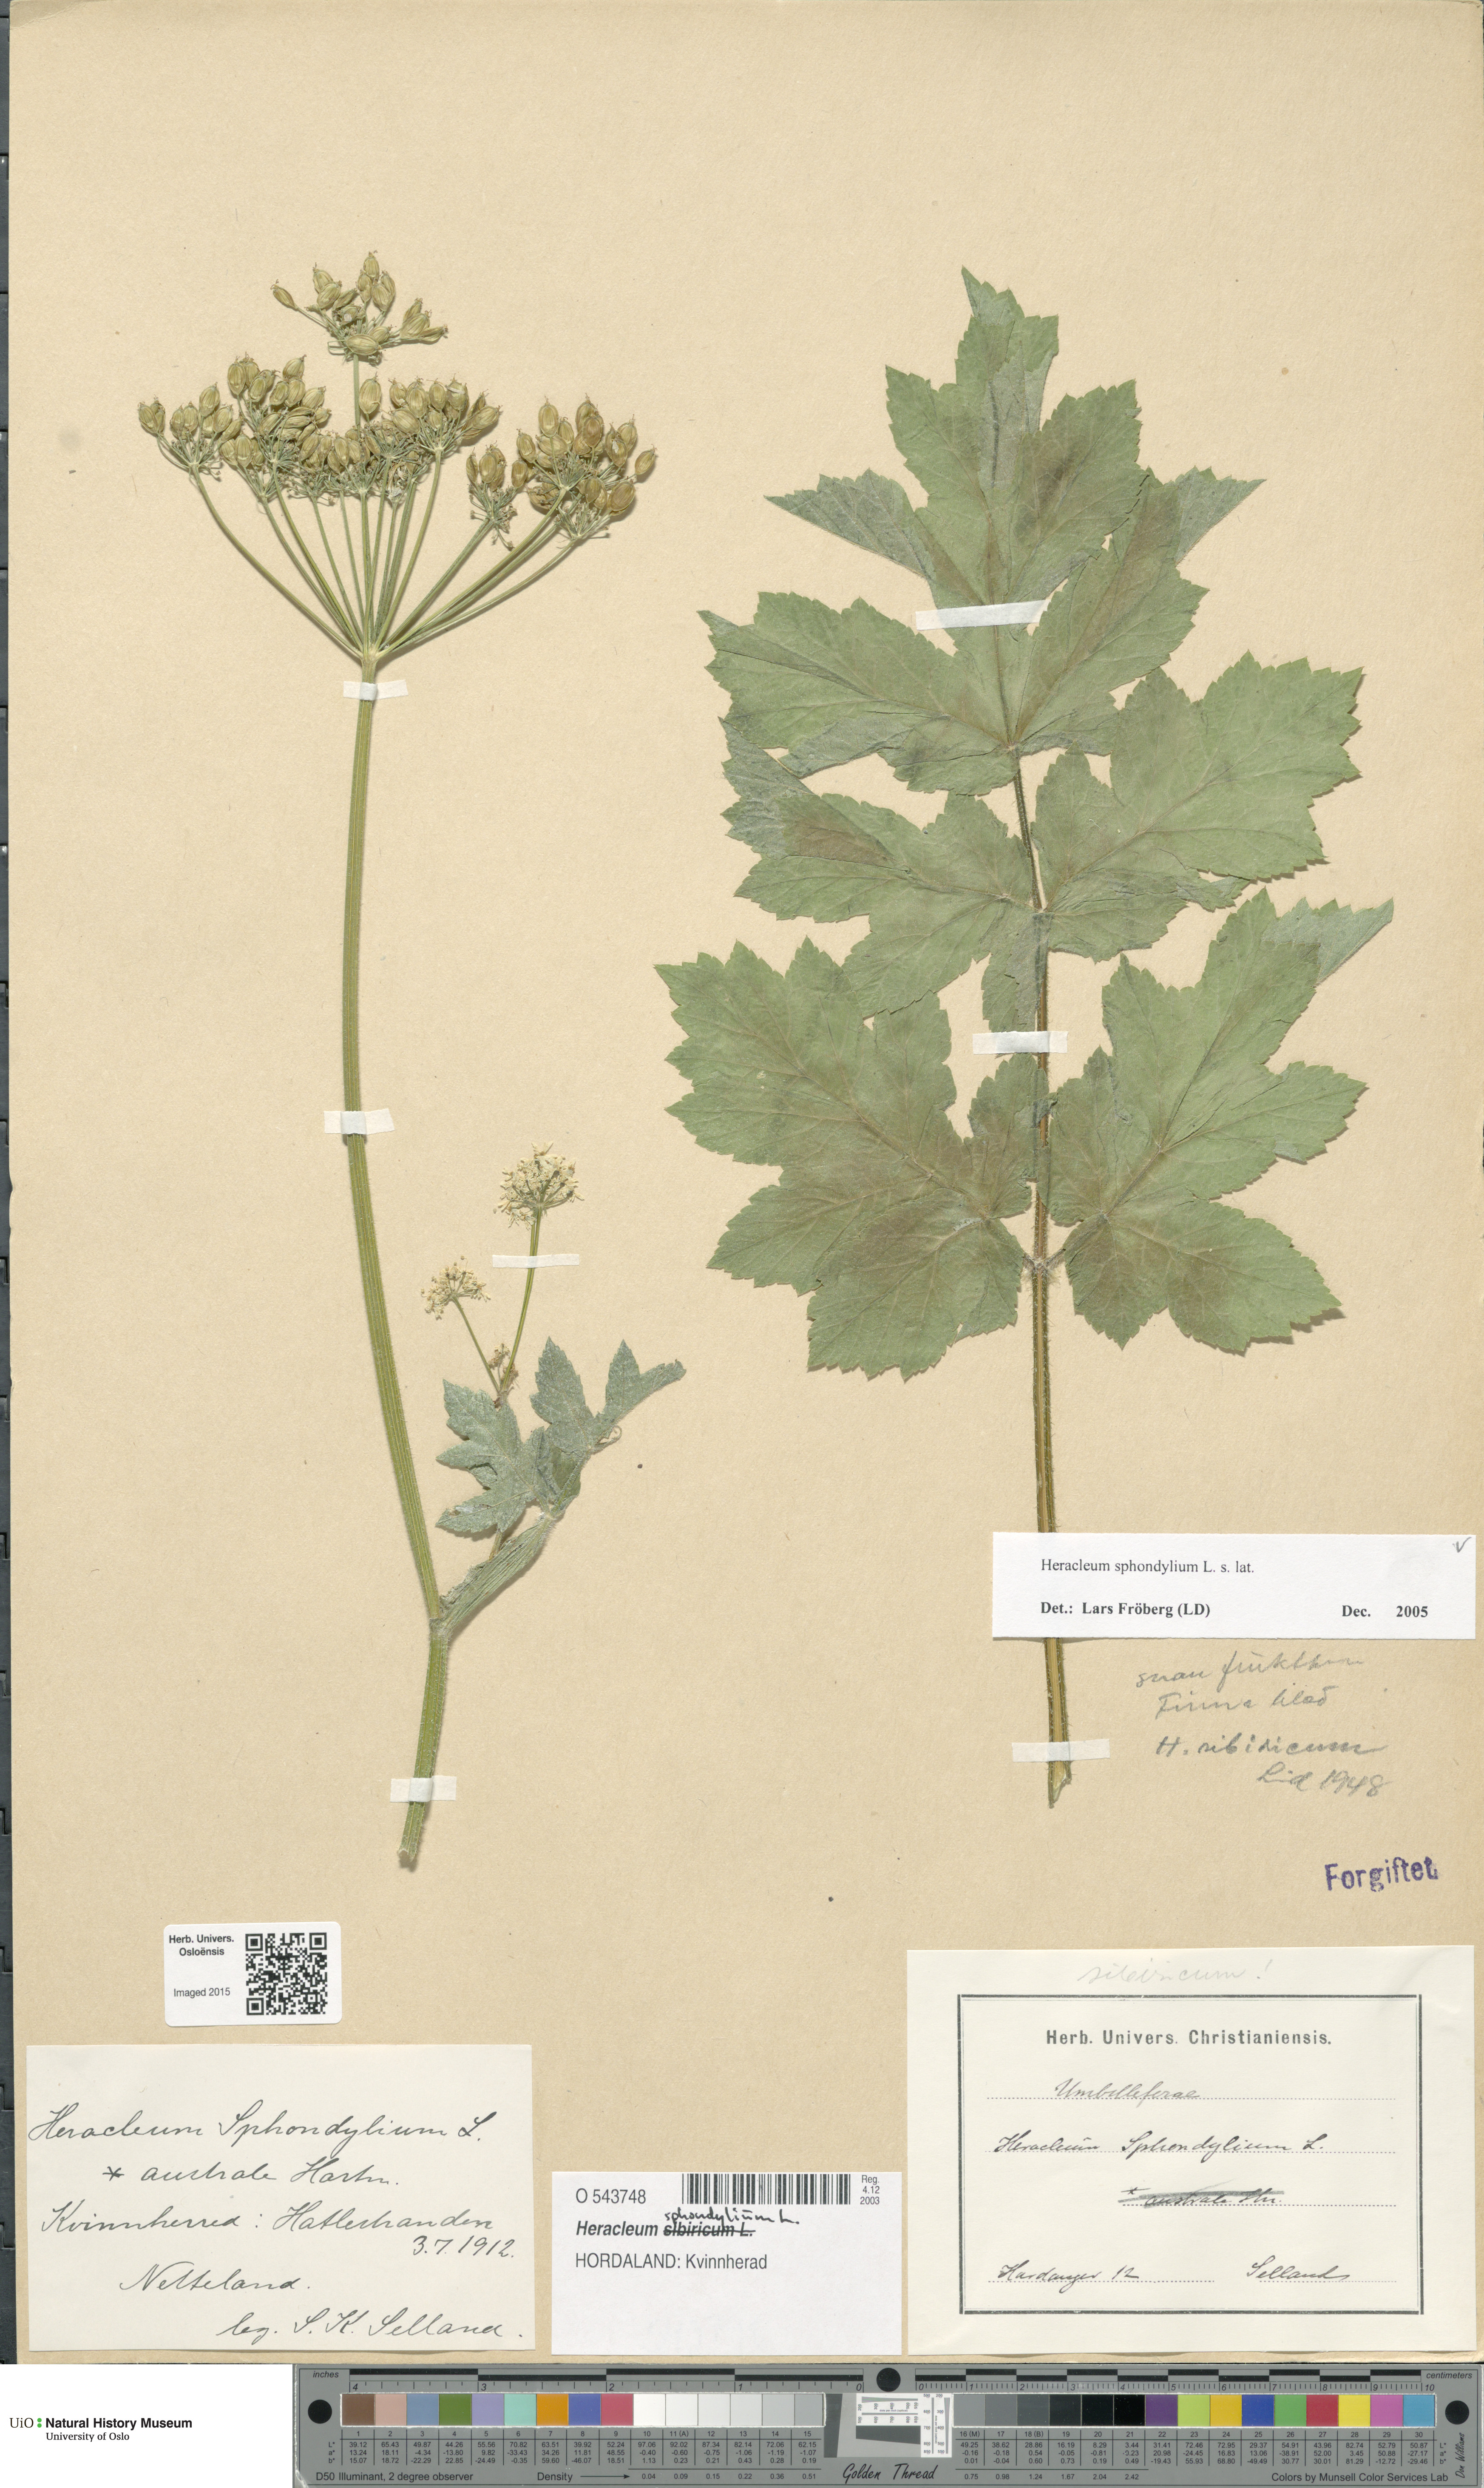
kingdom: Plantae
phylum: Tracheophyta
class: Magnoliopsida
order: Apiales
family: Apiaceae
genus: Heracleum
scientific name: Heracleum sphondylium
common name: Hogweed
